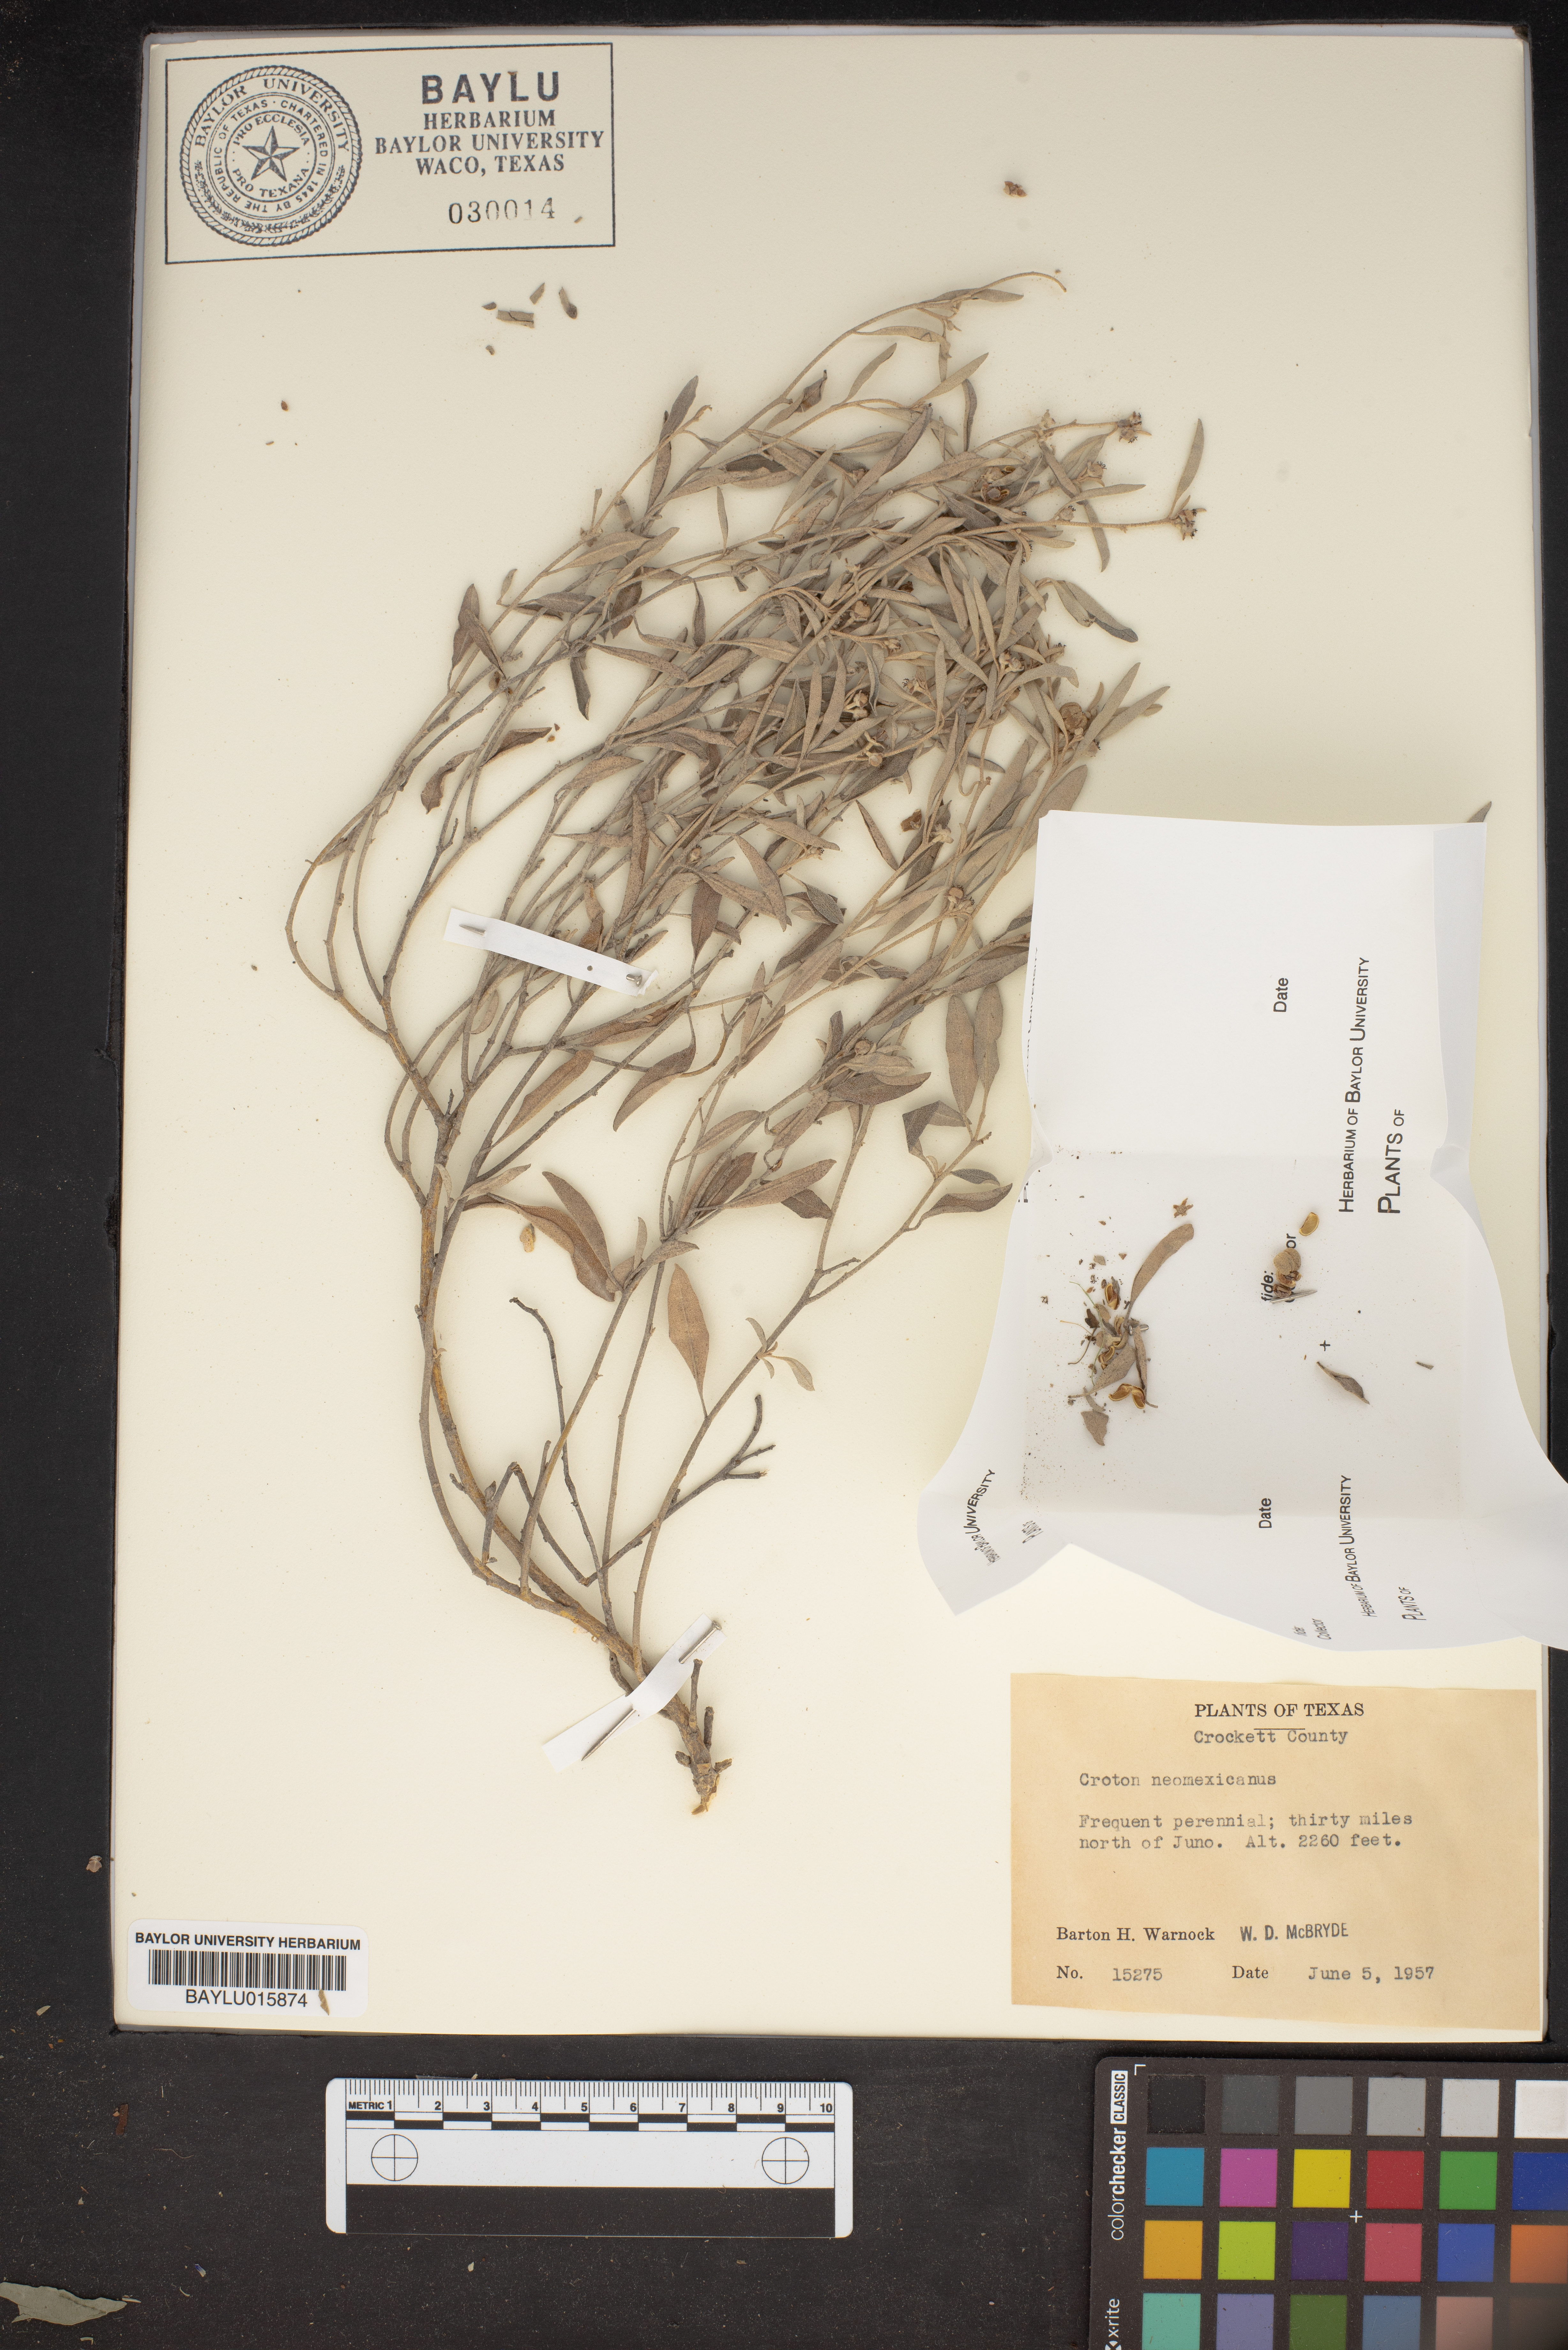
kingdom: Plantae
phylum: Tracheophyta
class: Magnoliopsida
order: Malpighiales
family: Euphorbiaceae
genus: Croton
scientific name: Croton dioicus
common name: Grassland croton
